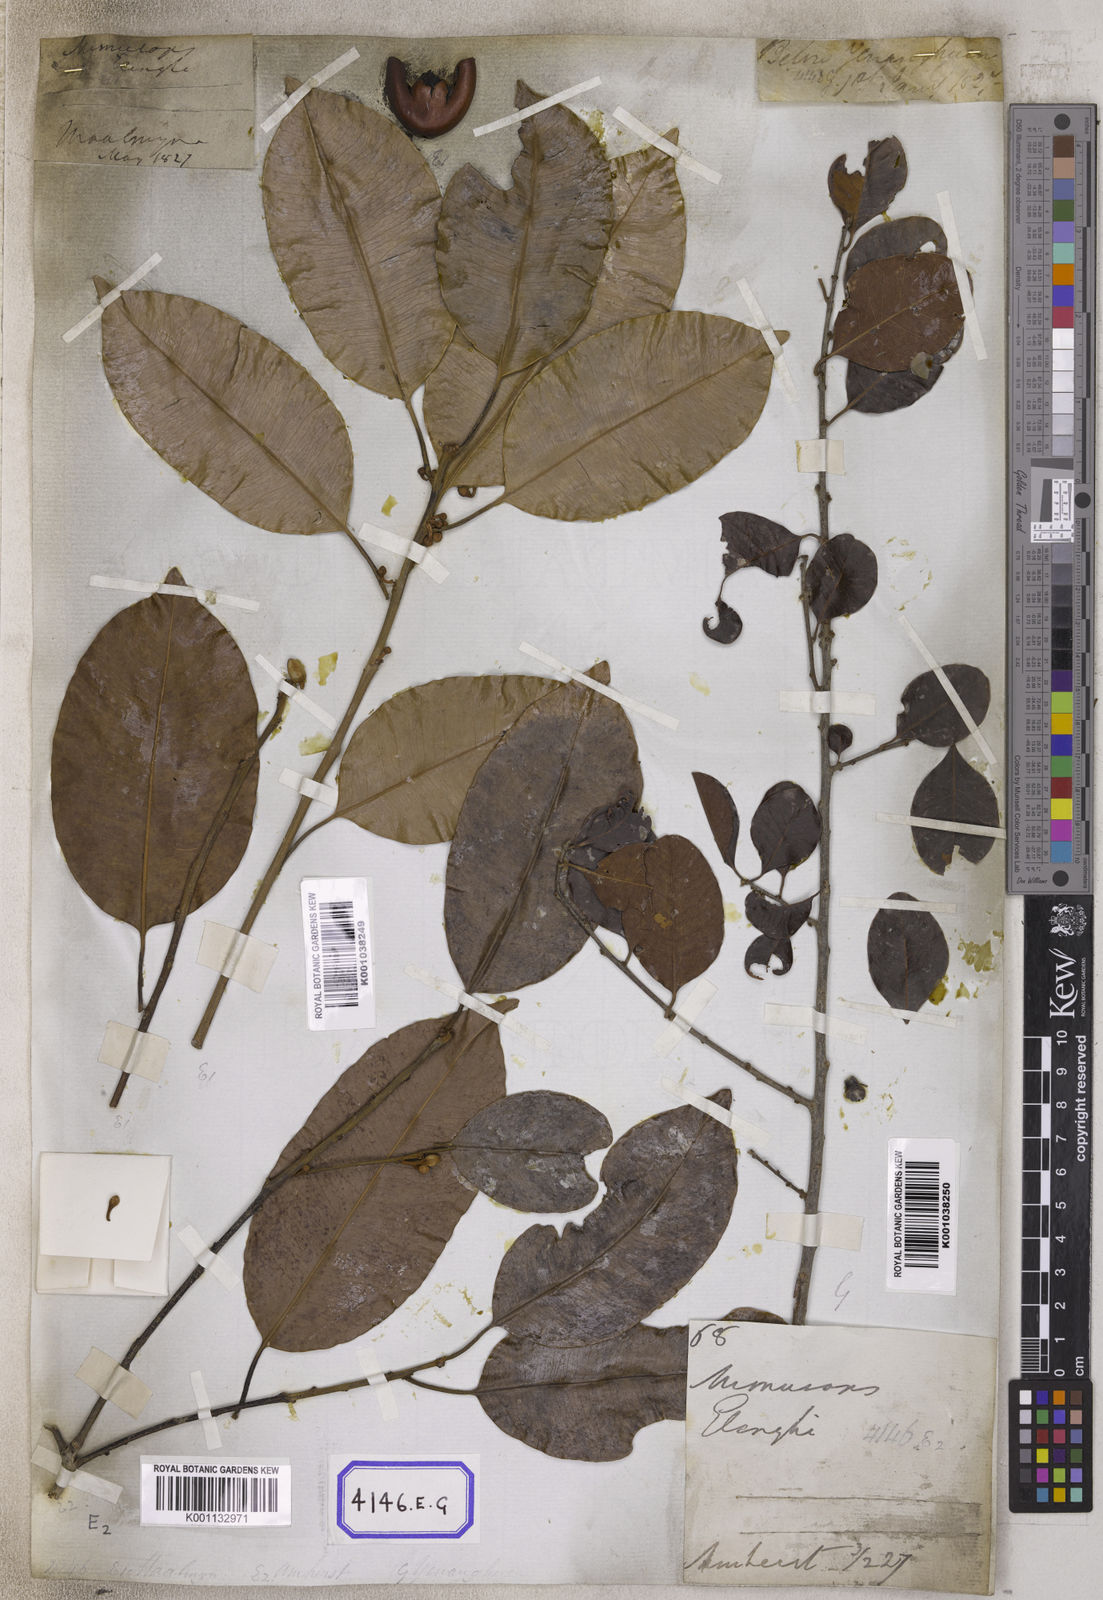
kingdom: Plantae
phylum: Tracheophyta
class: Magnoliopsida
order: Ericales
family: Sapotaceae
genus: Mimusops
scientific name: Mimusops
